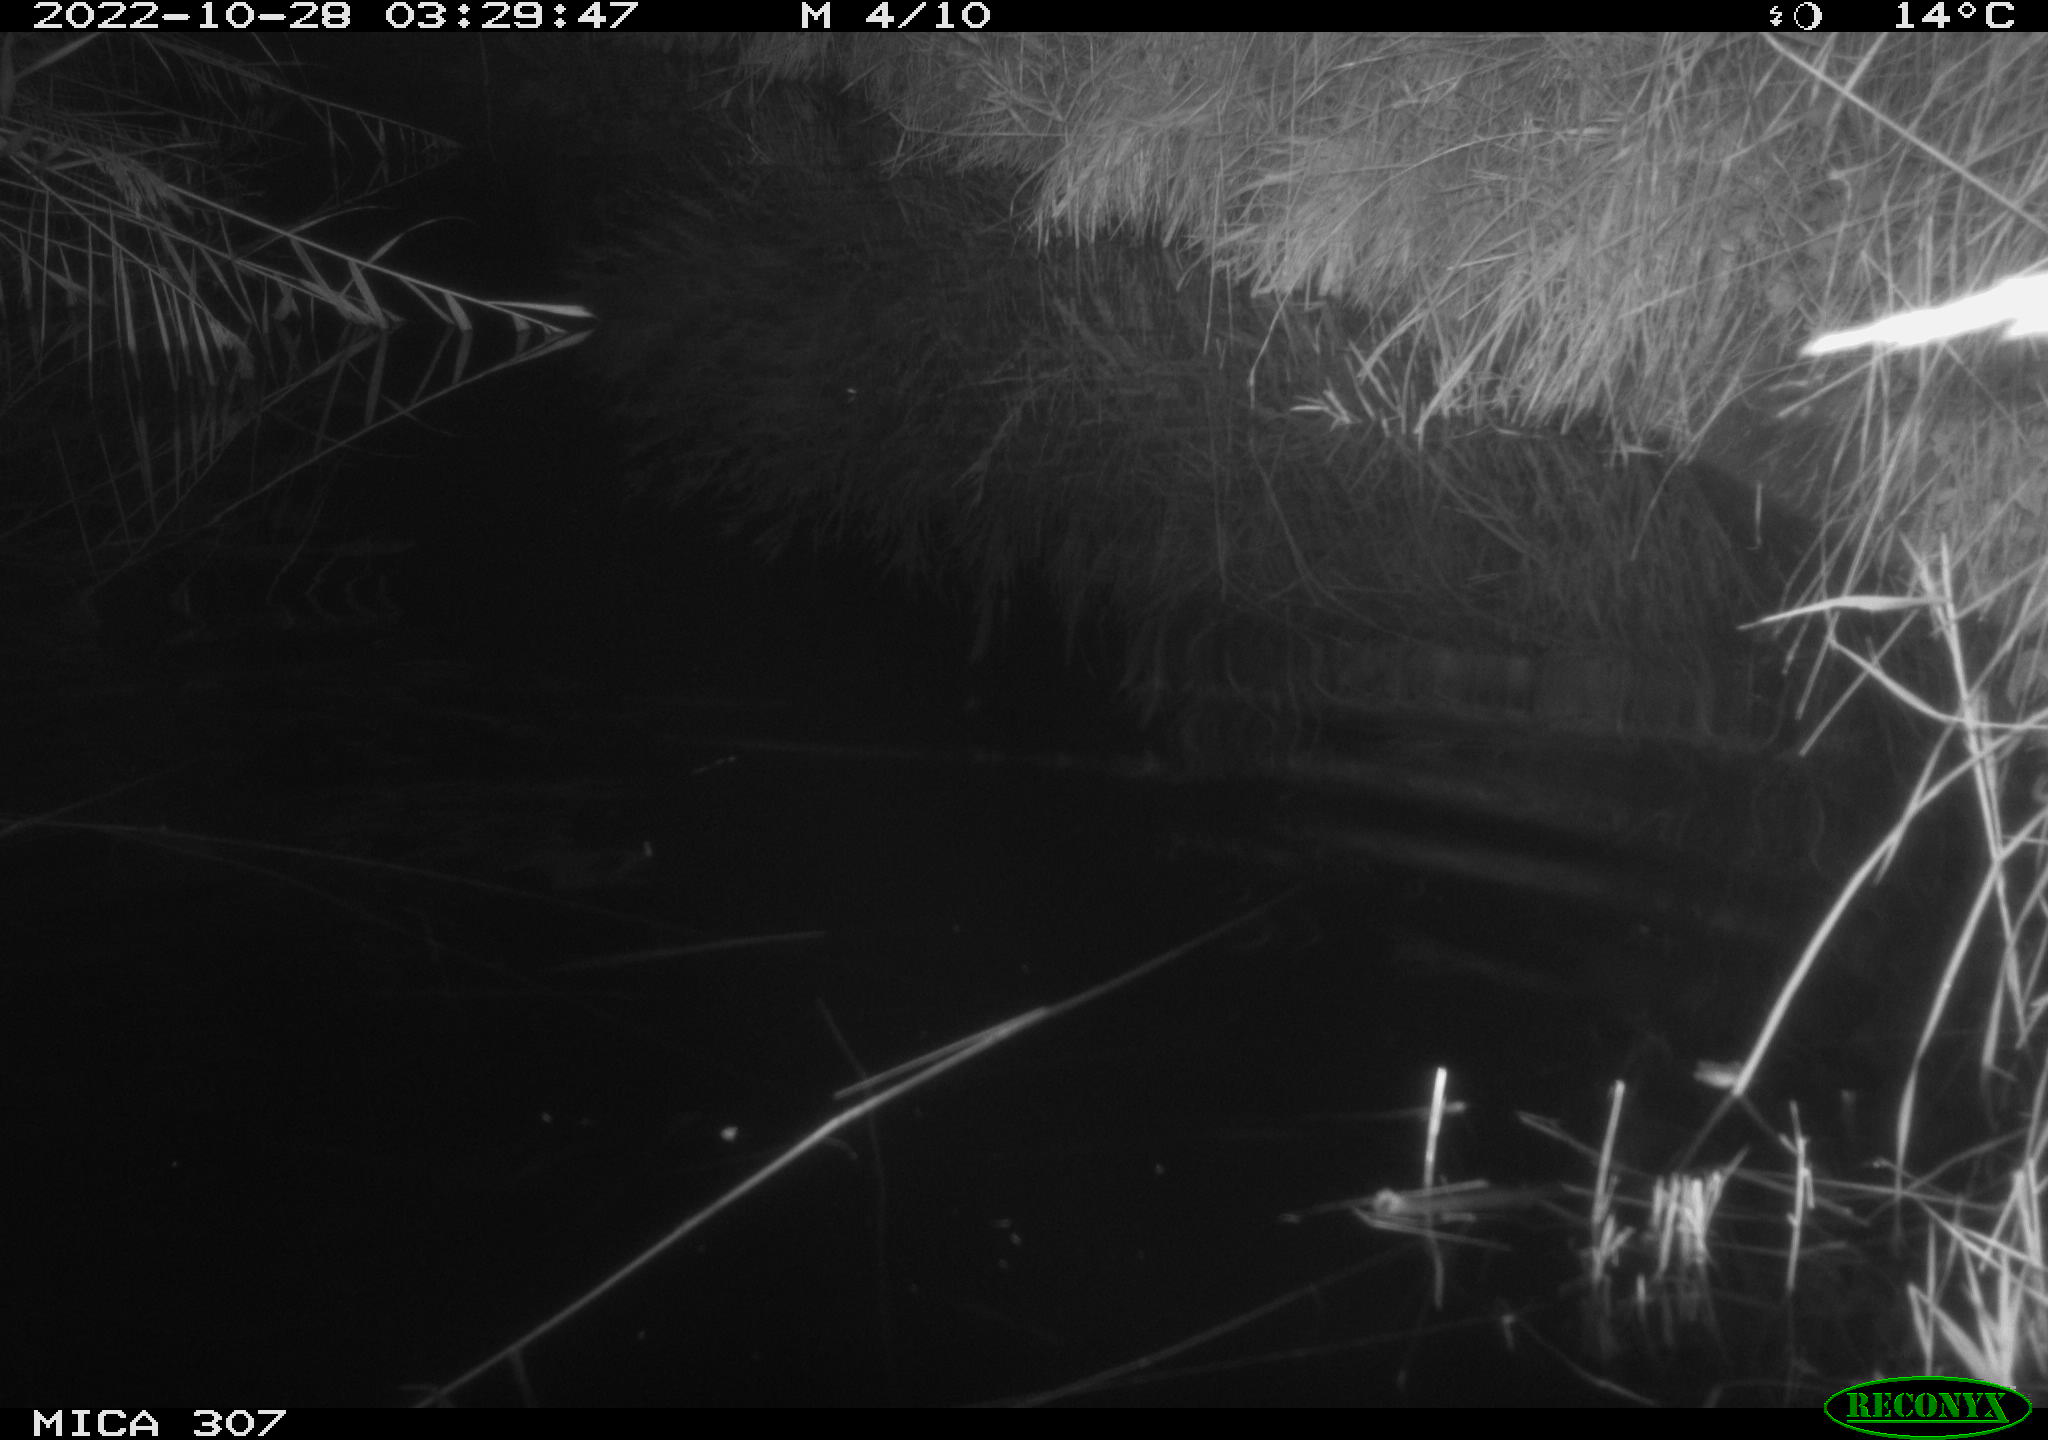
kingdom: Animalia
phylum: Chordata
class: Mammalia
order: Rodentia
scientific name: Rodentia
